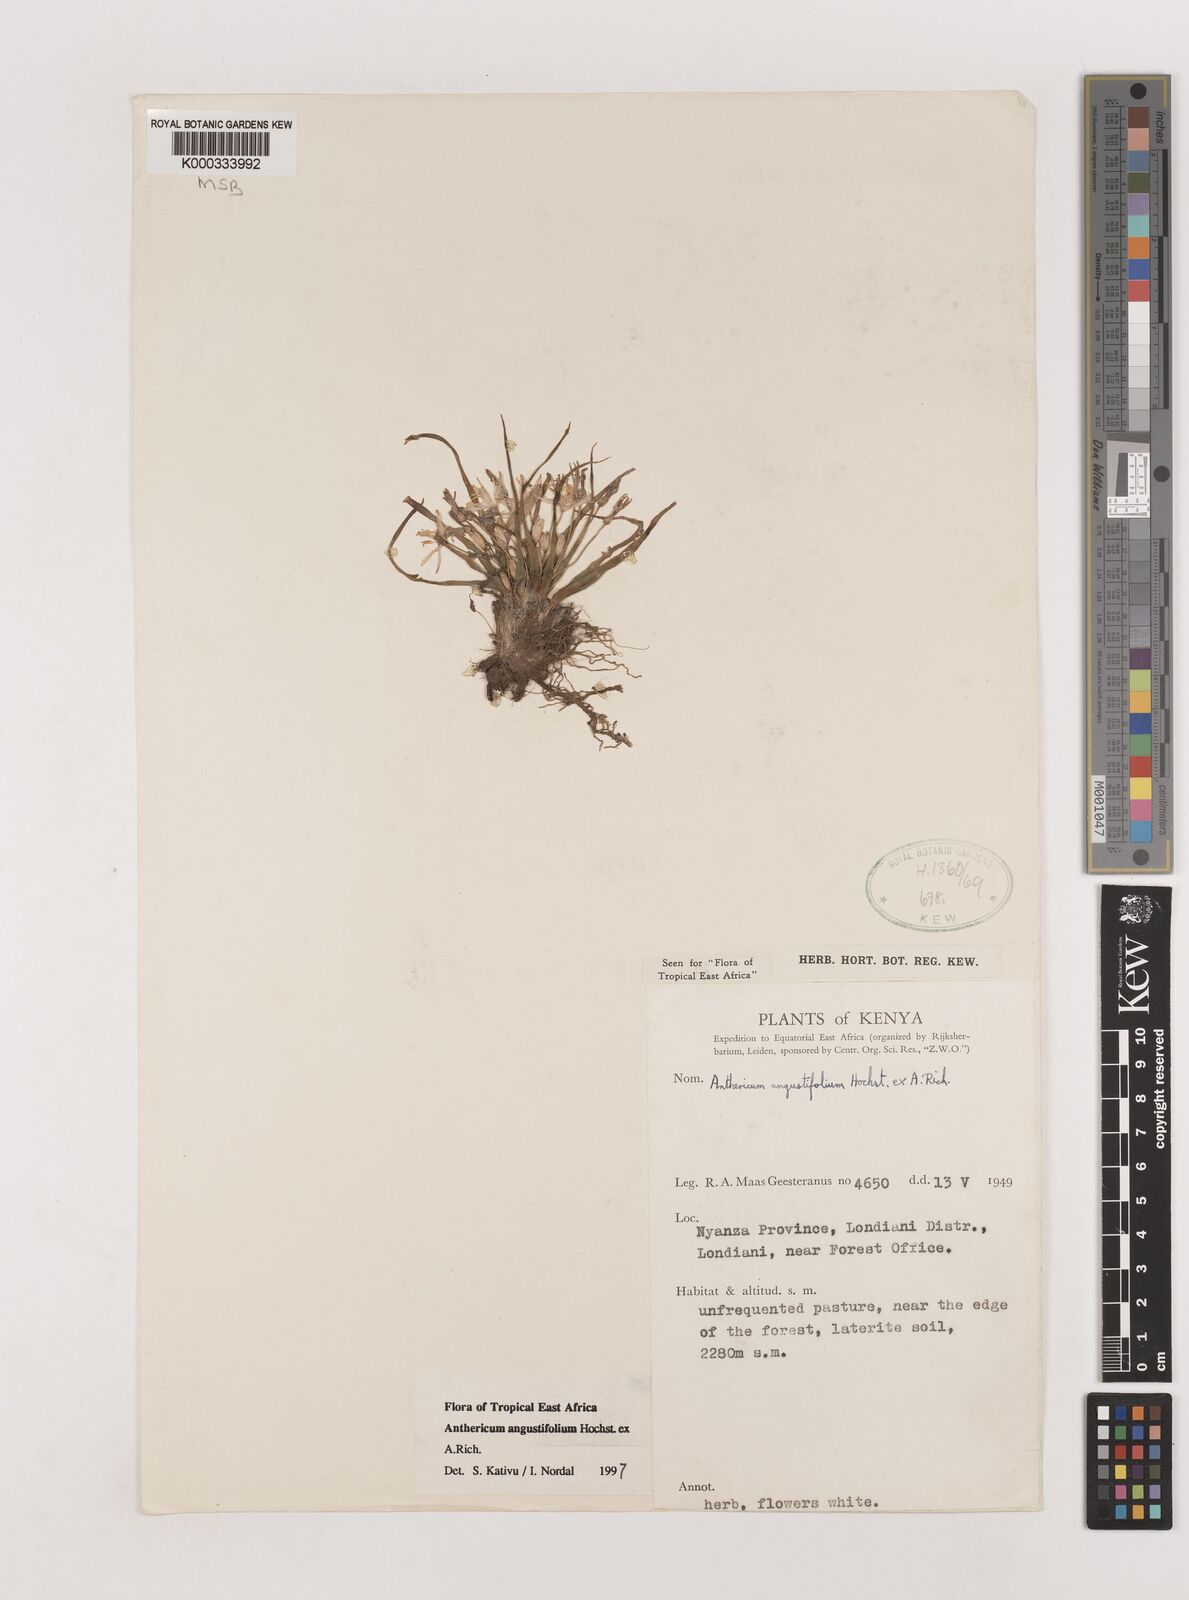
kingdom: Plantae
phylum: Tracheophyta
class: Liliopsida
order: Asparagales
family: Asparagaceae
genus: Anthericum
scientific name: Anthericum angustifolium
